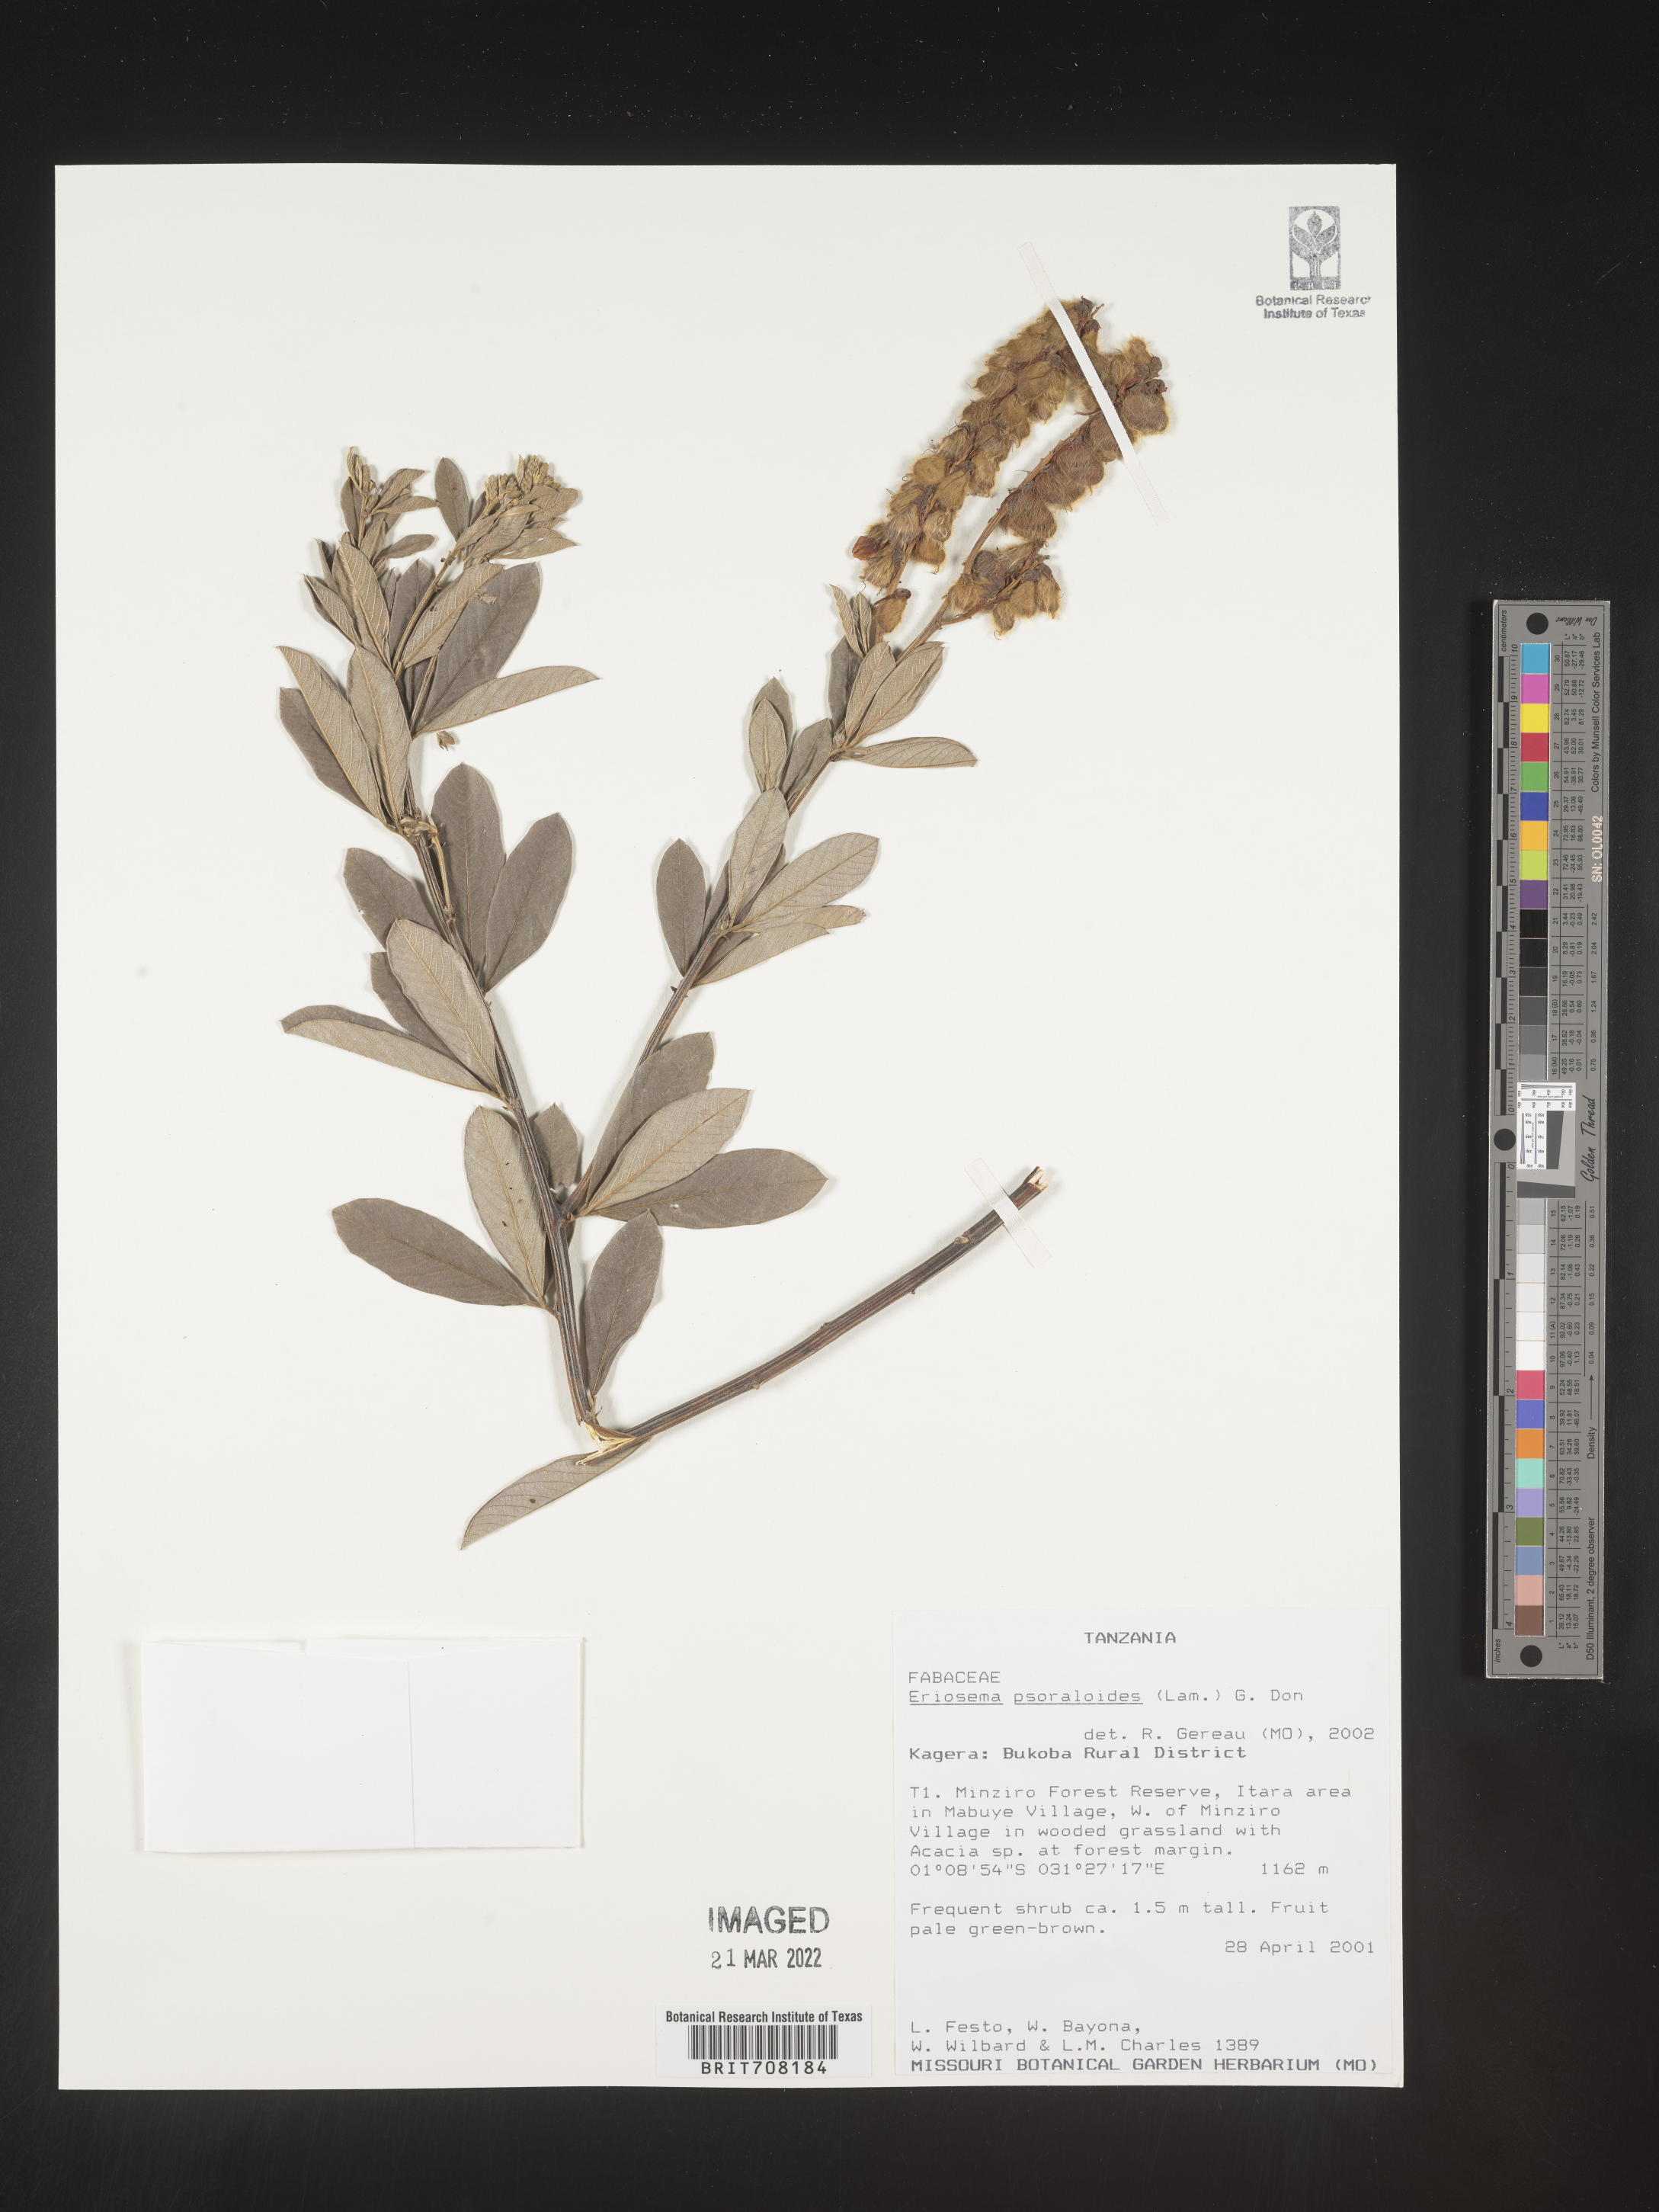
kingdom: Plantae
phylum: Tracheophyta
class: Magnoliopsida
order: Fabales
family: Fabaceae
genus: Eriosema
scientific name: Eriosema
